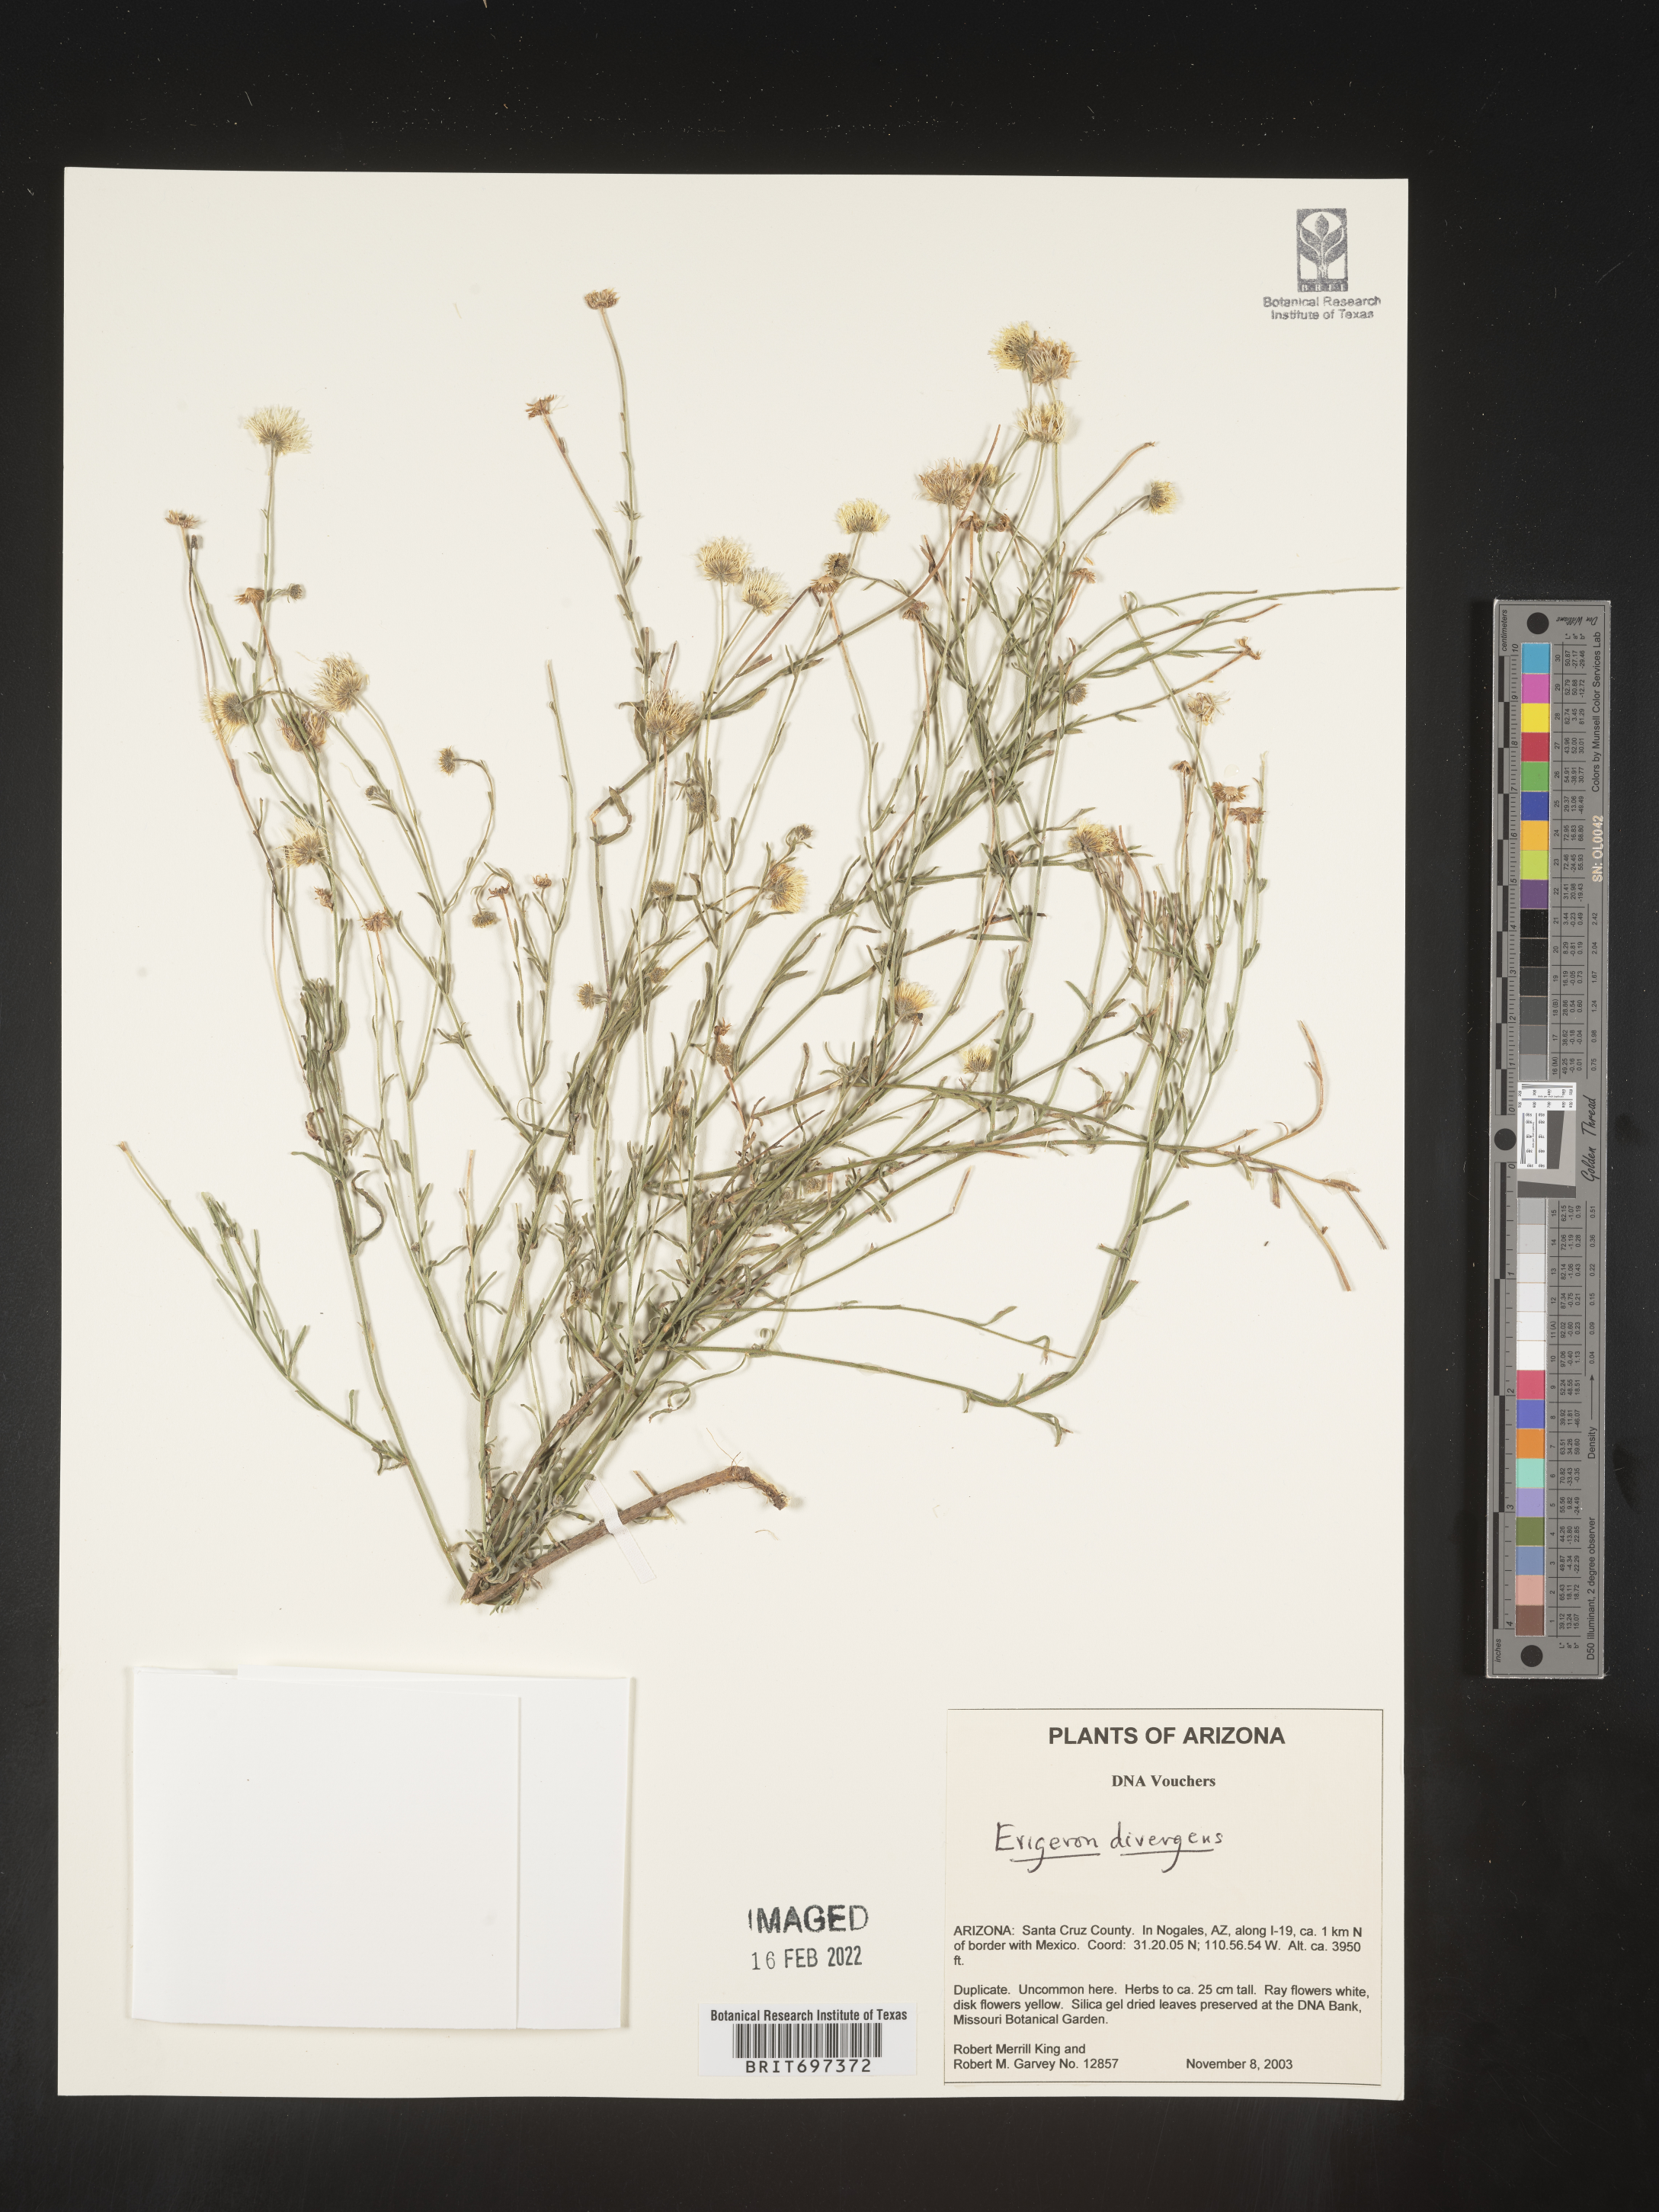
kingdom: Plantae
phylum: Tracheophyta
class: Magnoliopsida
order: Asterales
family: Asteraceae
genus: Erigeron
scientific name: Erigeron divergens
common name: Diffuse fleabane
